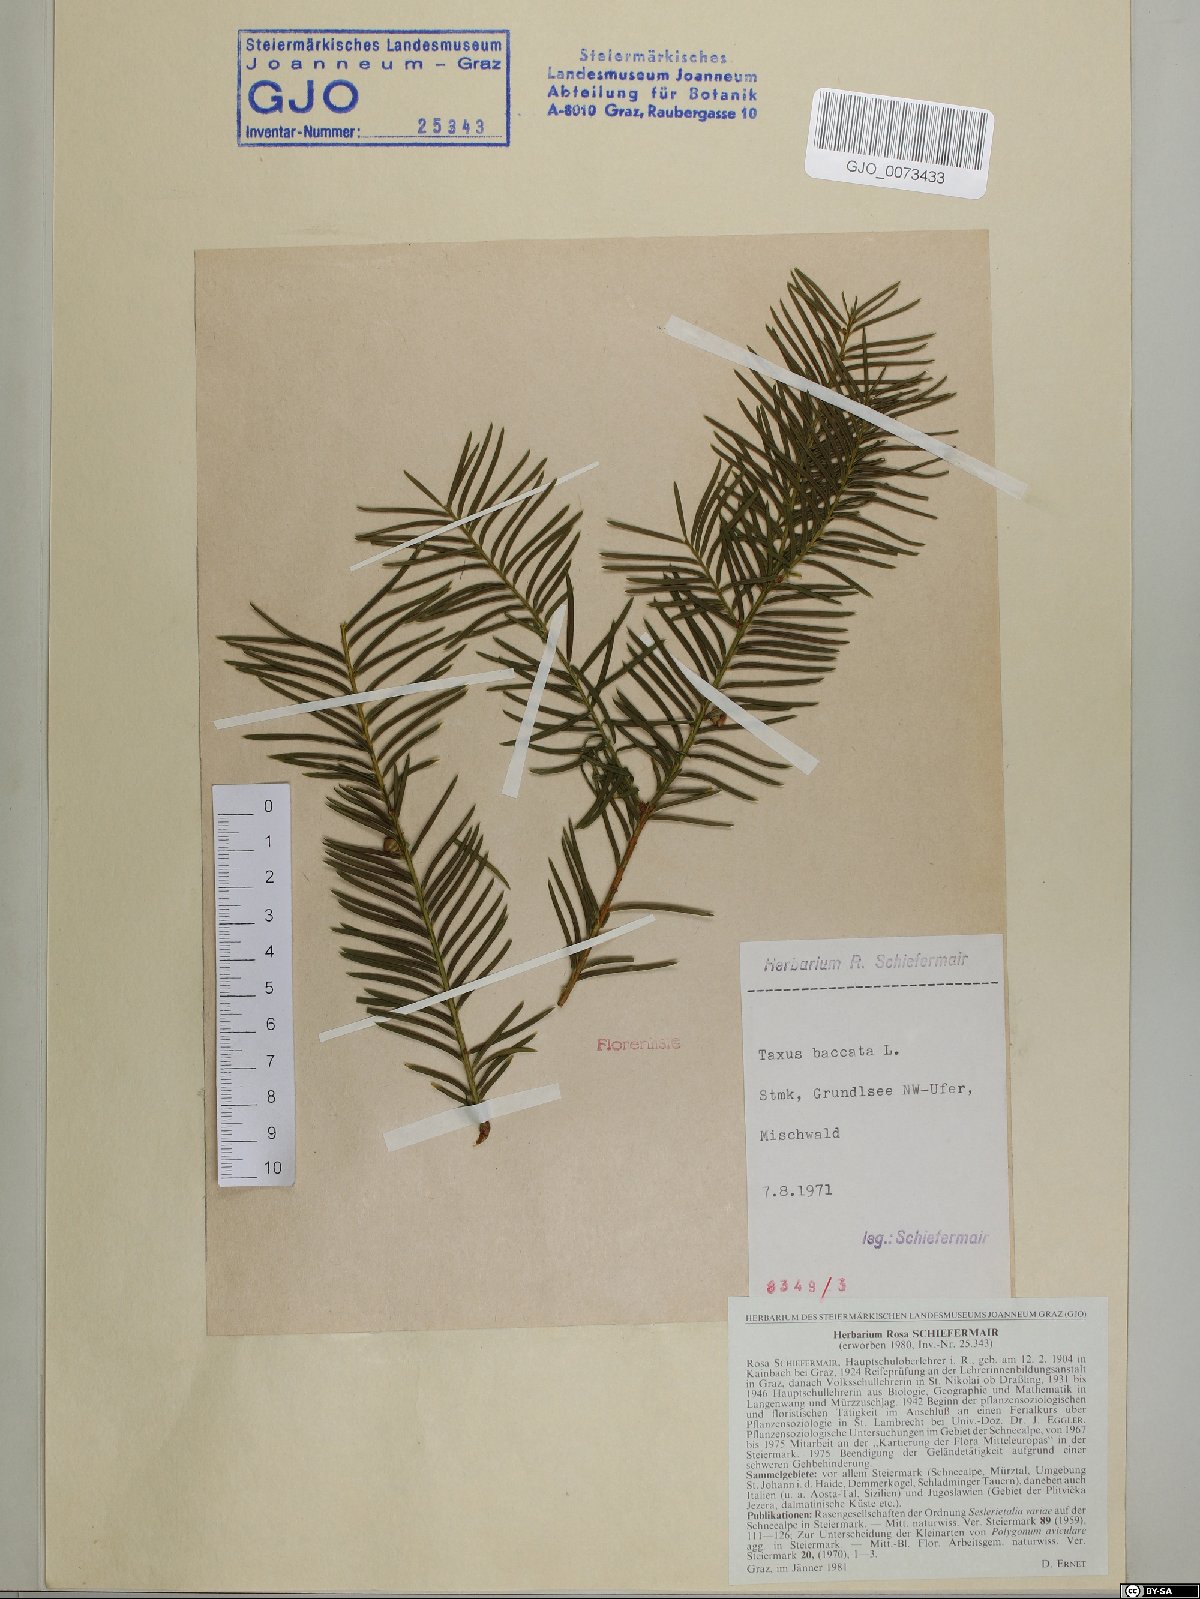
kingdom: Plantae
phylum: Tracheophyta
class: Pinopsida
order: Pinales
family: Taxaceae
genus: Taxus
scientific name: Taxus baccata
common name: Yew
